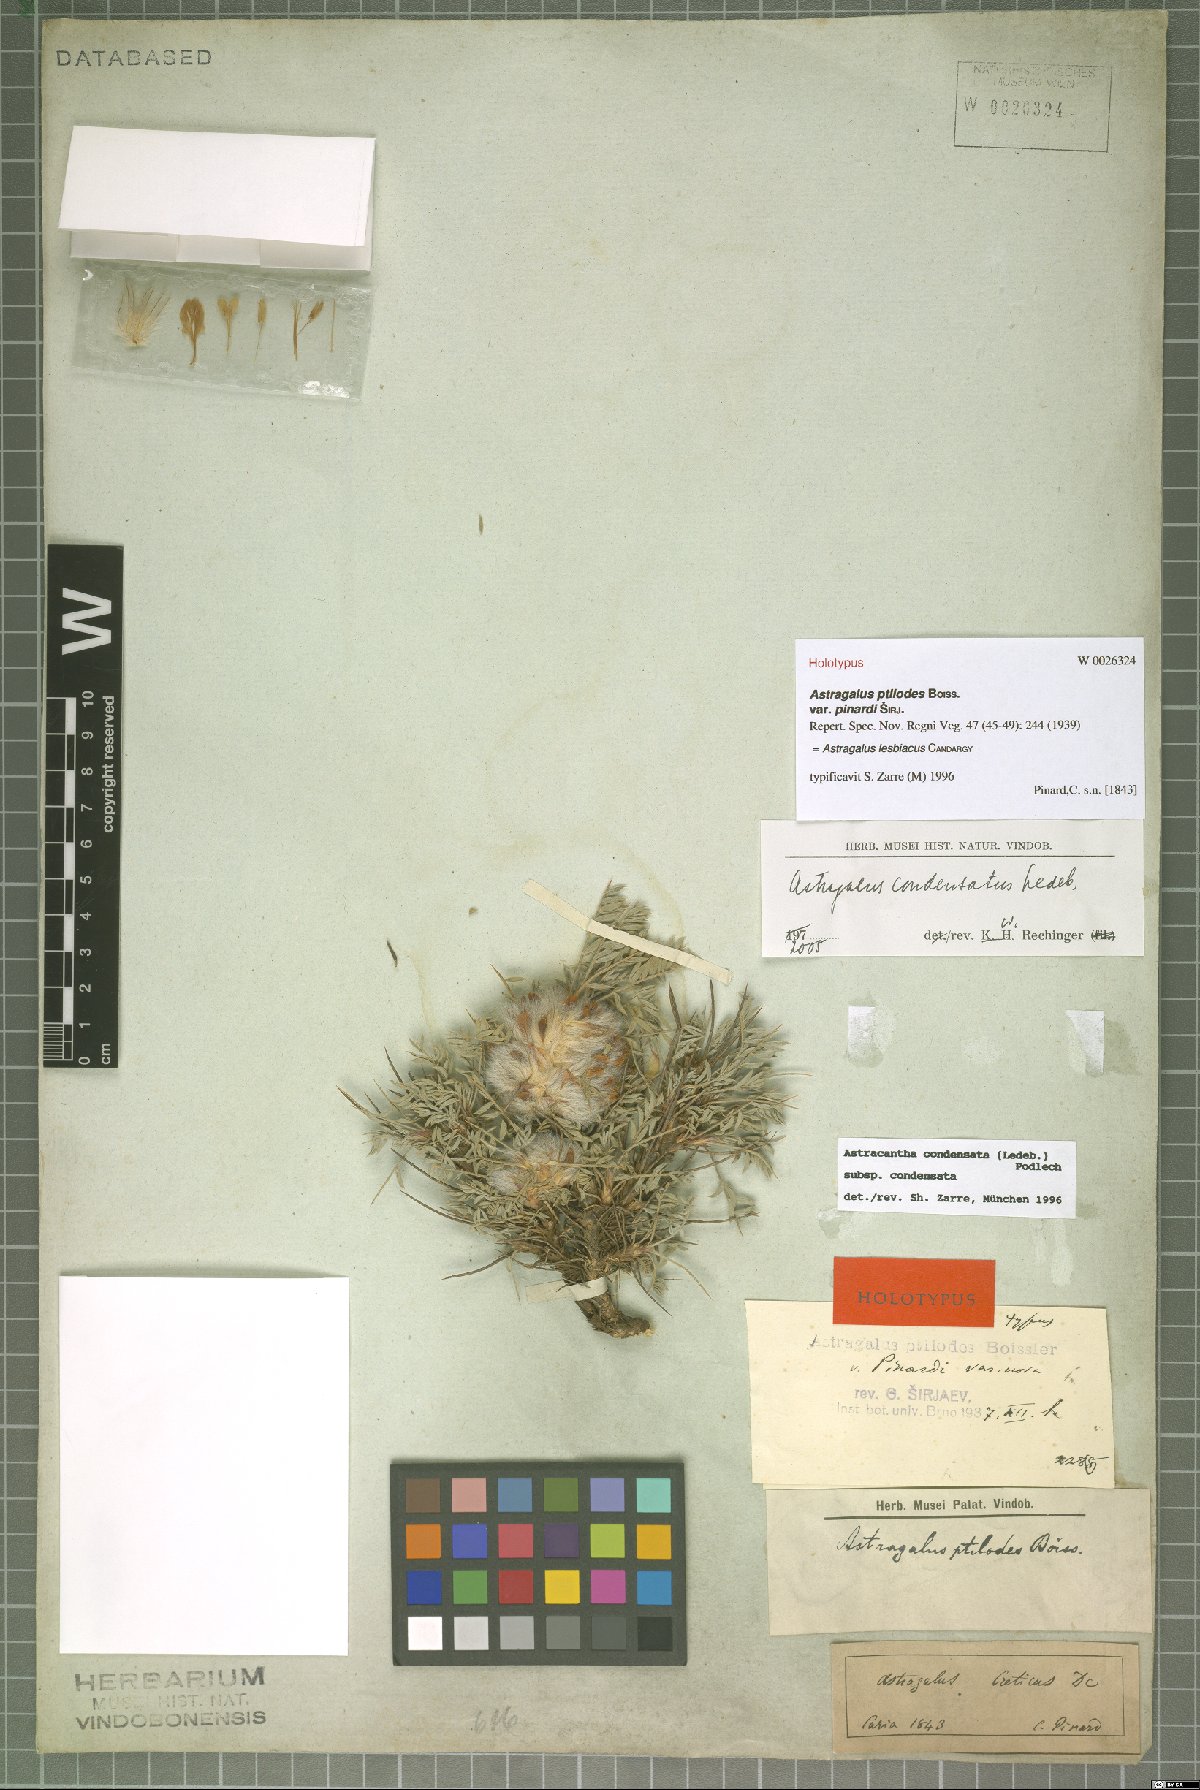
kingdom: Plantae
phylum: Tracheophyta
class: Magnoliopsida
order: Fabales
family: Fabaceae
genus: Astragalus
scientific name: Astragalus lesbiacus
